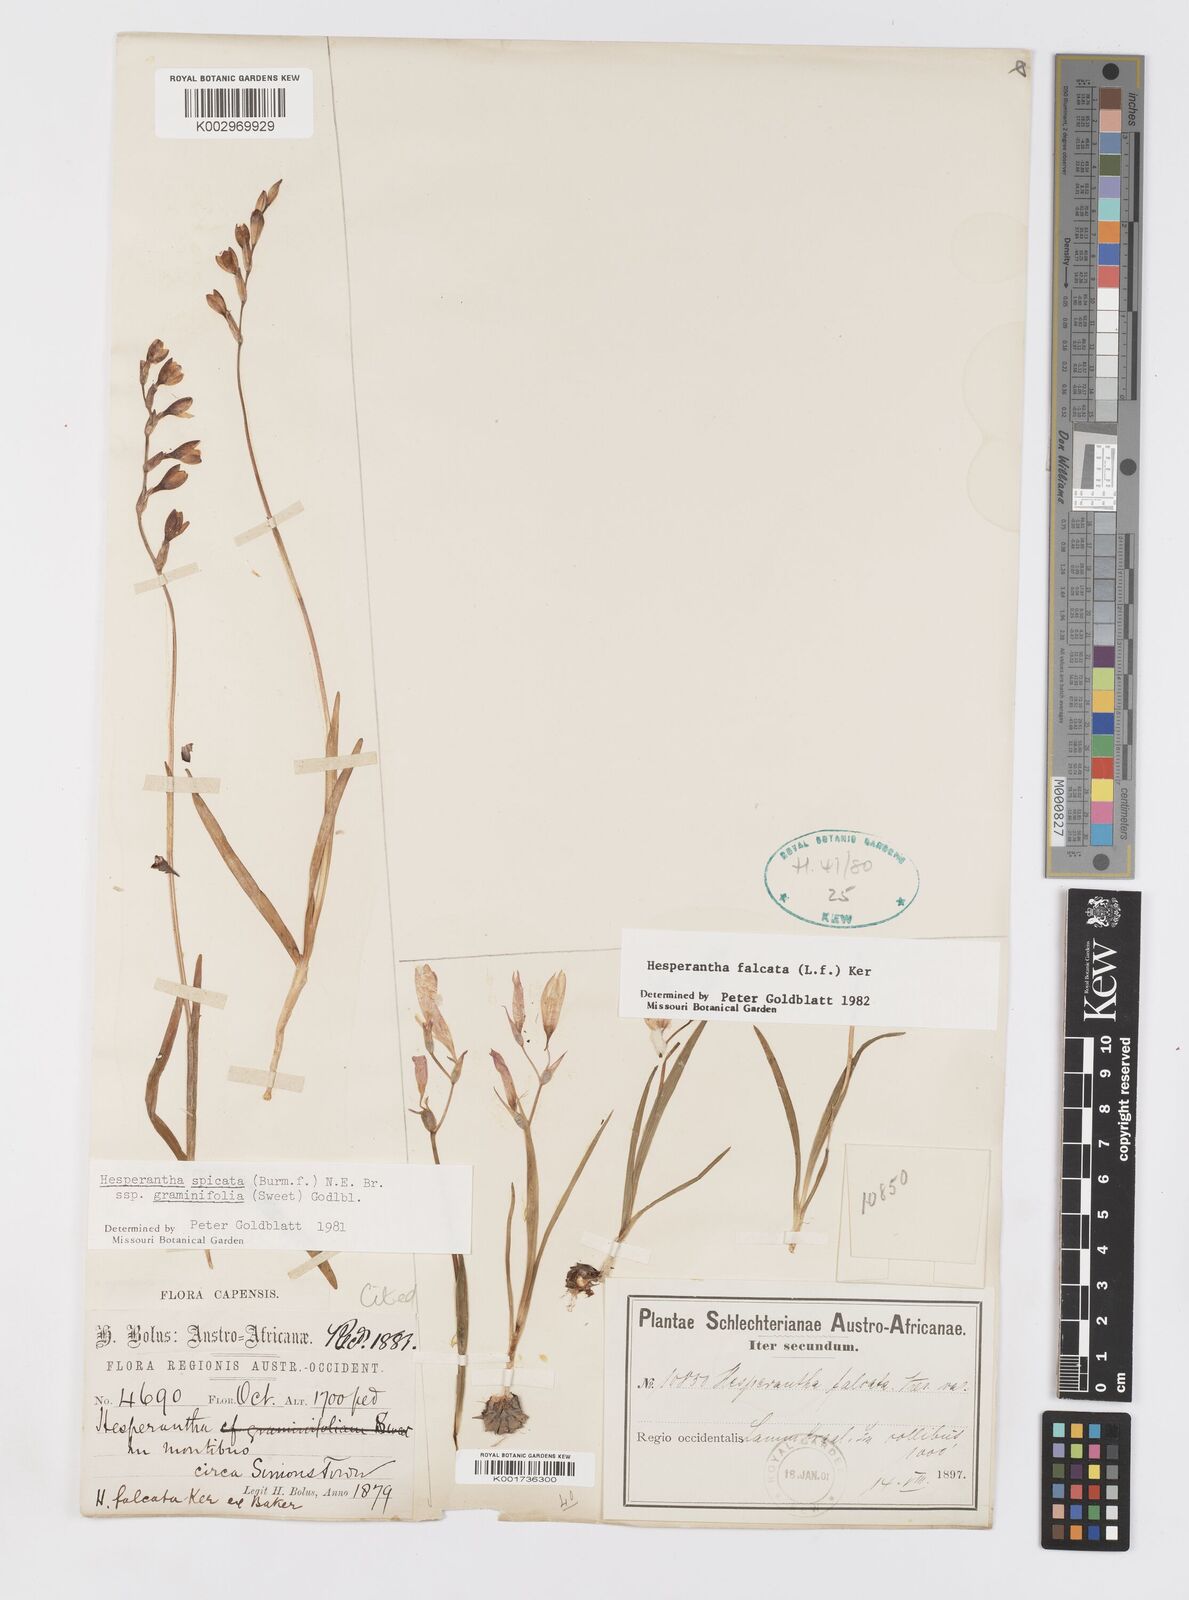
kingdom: Plantae
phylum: Tracheophyta
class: Liliopsida
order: Asparagales
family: Iridaceae
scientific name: Iridaceae
